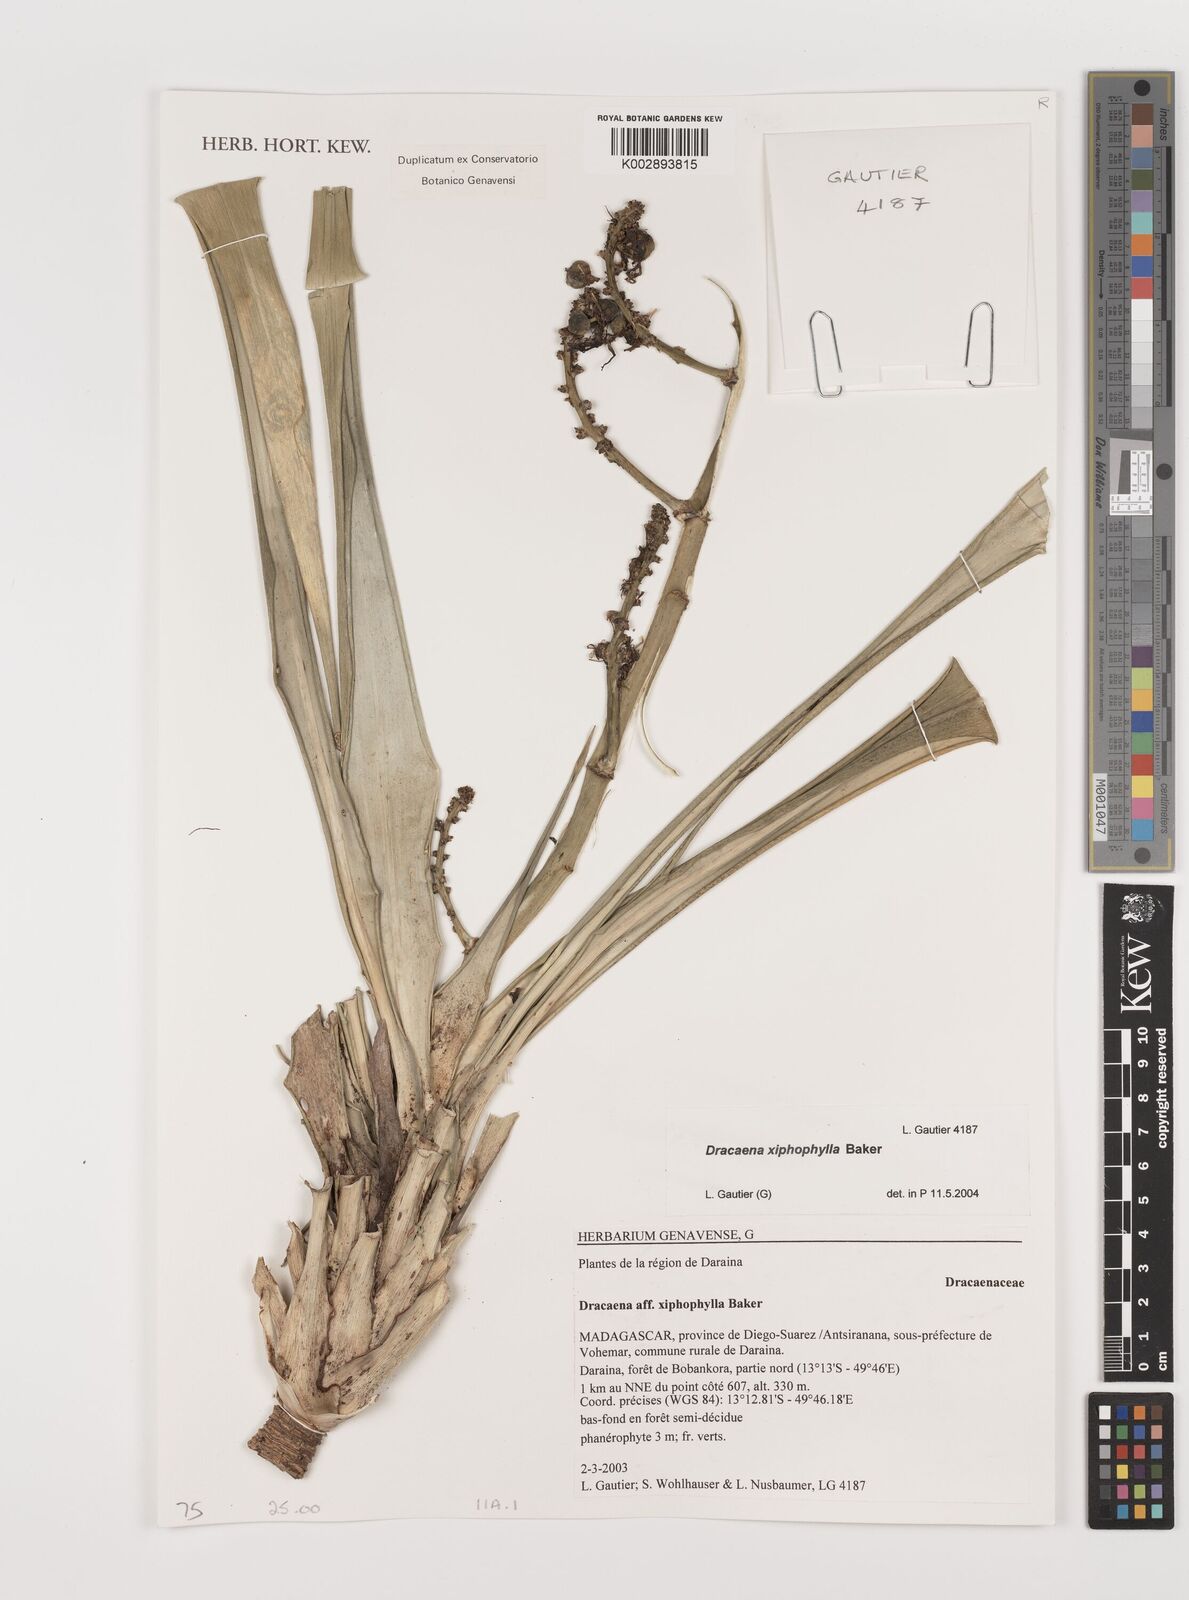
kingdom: Plantae
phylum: Tracheophyta
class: Liliopsida
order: Asparagales
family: Asparagaceae
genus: Dracaena
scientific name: Dracaena xiphophylla
